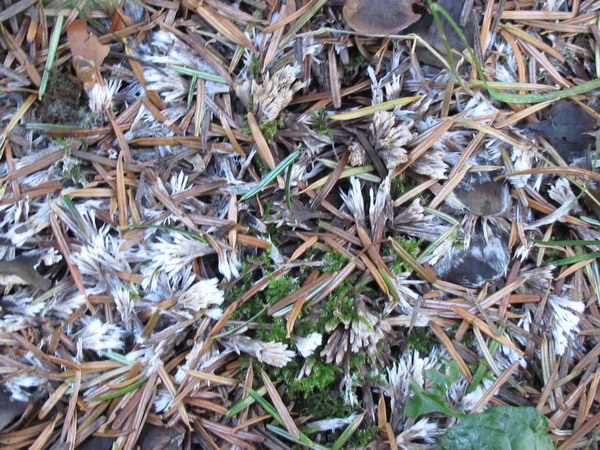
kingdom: Fungi
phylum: Basidiomycota
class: Agaricomycetes
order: Thelephorales
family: Thelephoraceae
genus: Thelephora
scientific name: Thelephora penicillata
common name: fladtrådt frynsesvamp
